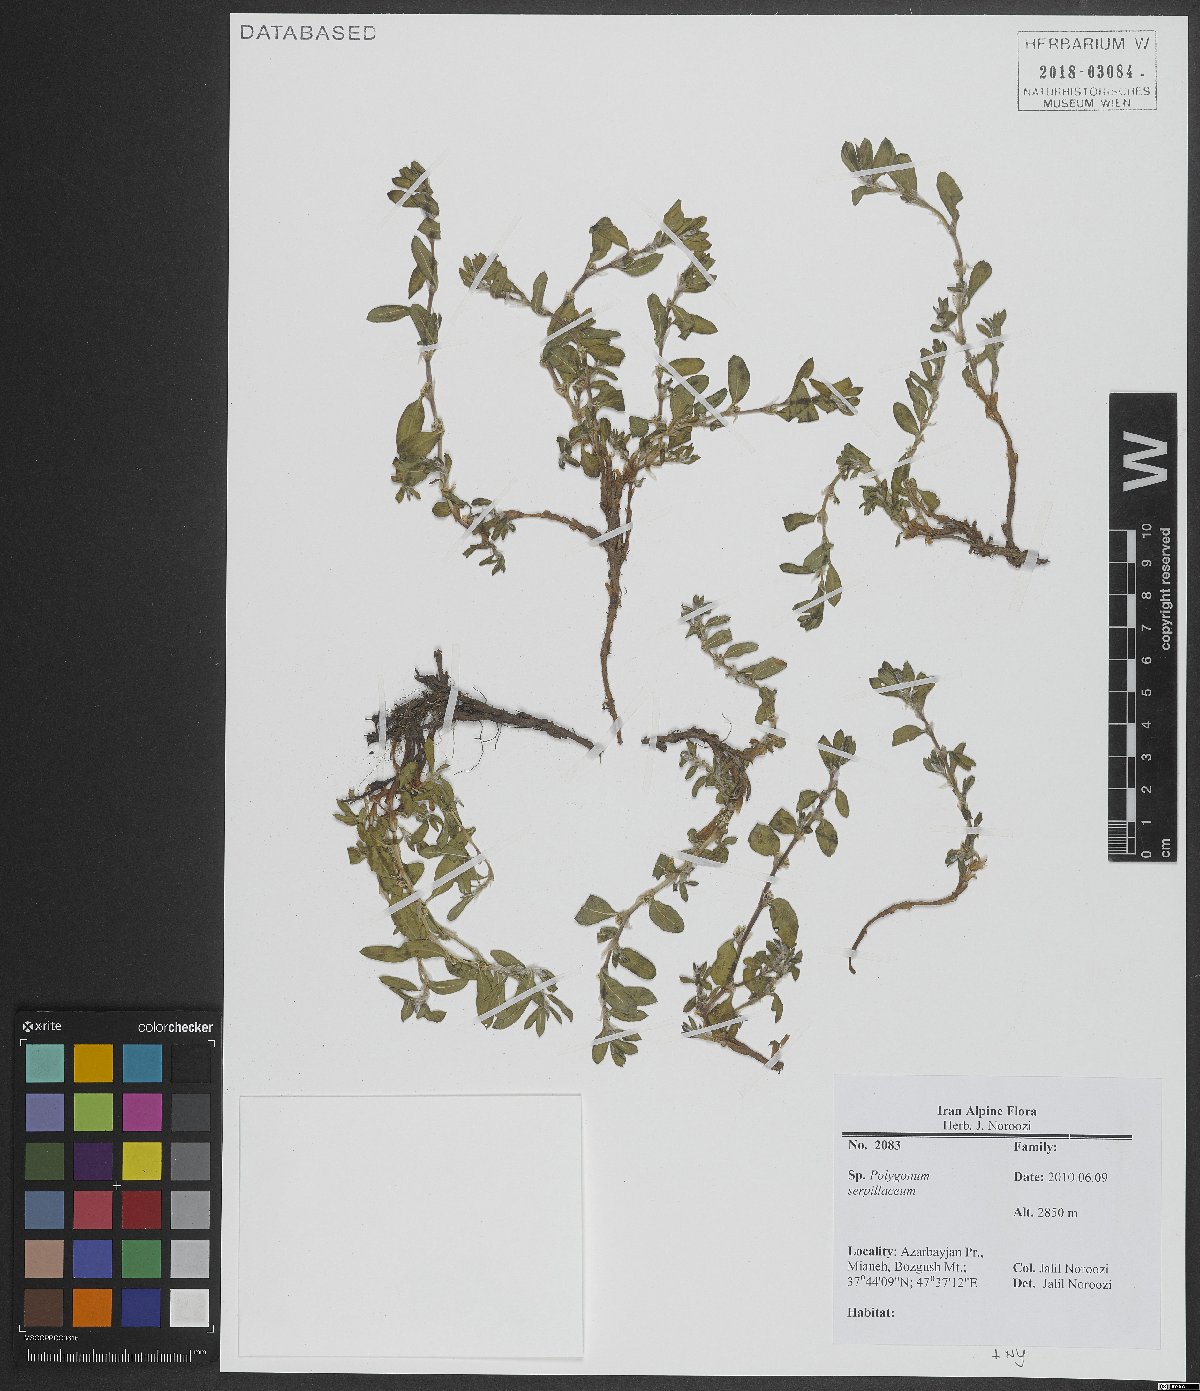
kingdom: Plantae
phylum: Tracheophyta
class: Magnoliopsida
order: Caryophyllales
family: Polygonaceae
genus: Polygonum
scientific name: Polygonum cognatum
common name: Indian knotgrass
